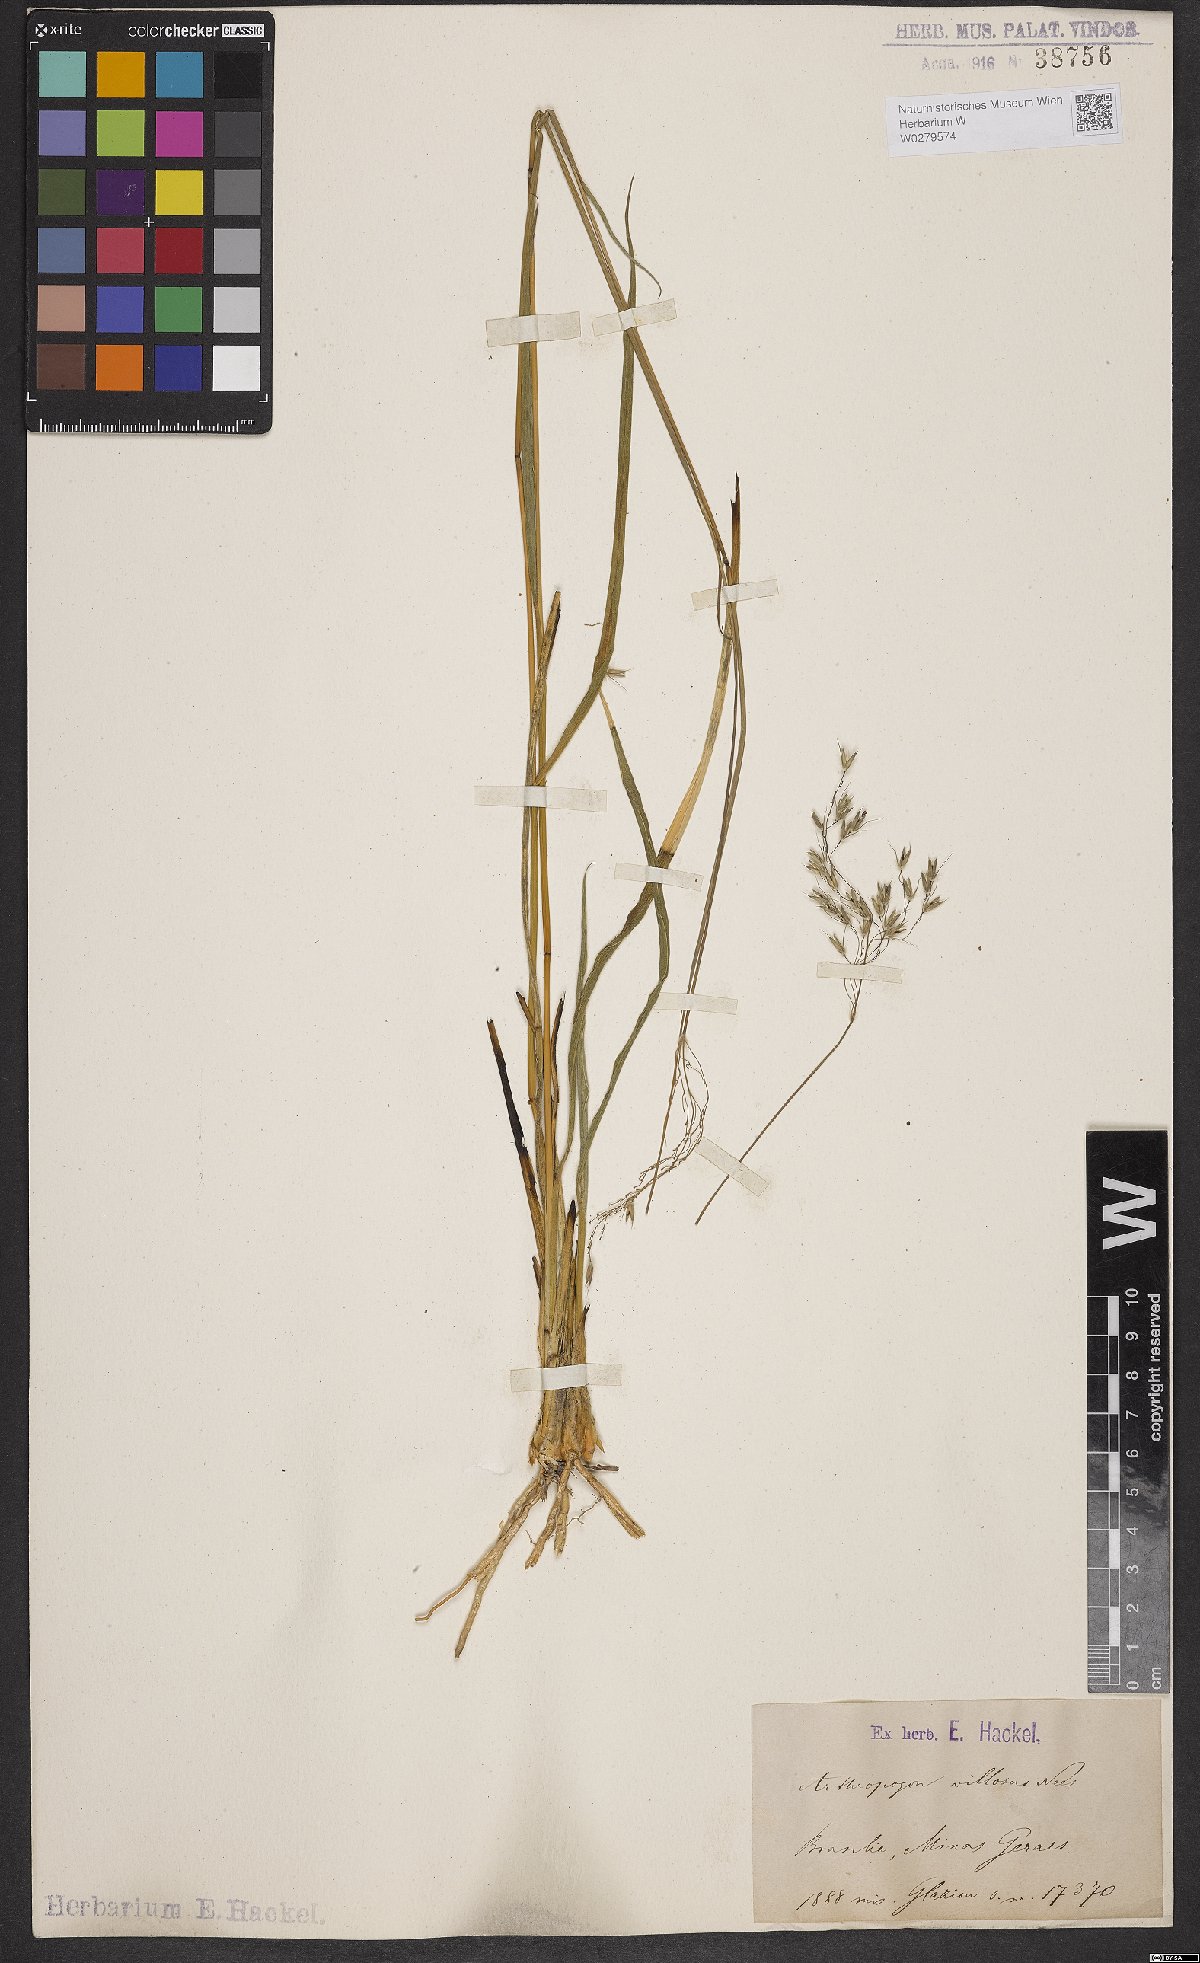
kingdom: Plantae
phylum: Tracheophyta
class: Liliopsida
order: Poales
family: Poaceae
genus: Arthropogon
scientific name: Arthropogon villosus
